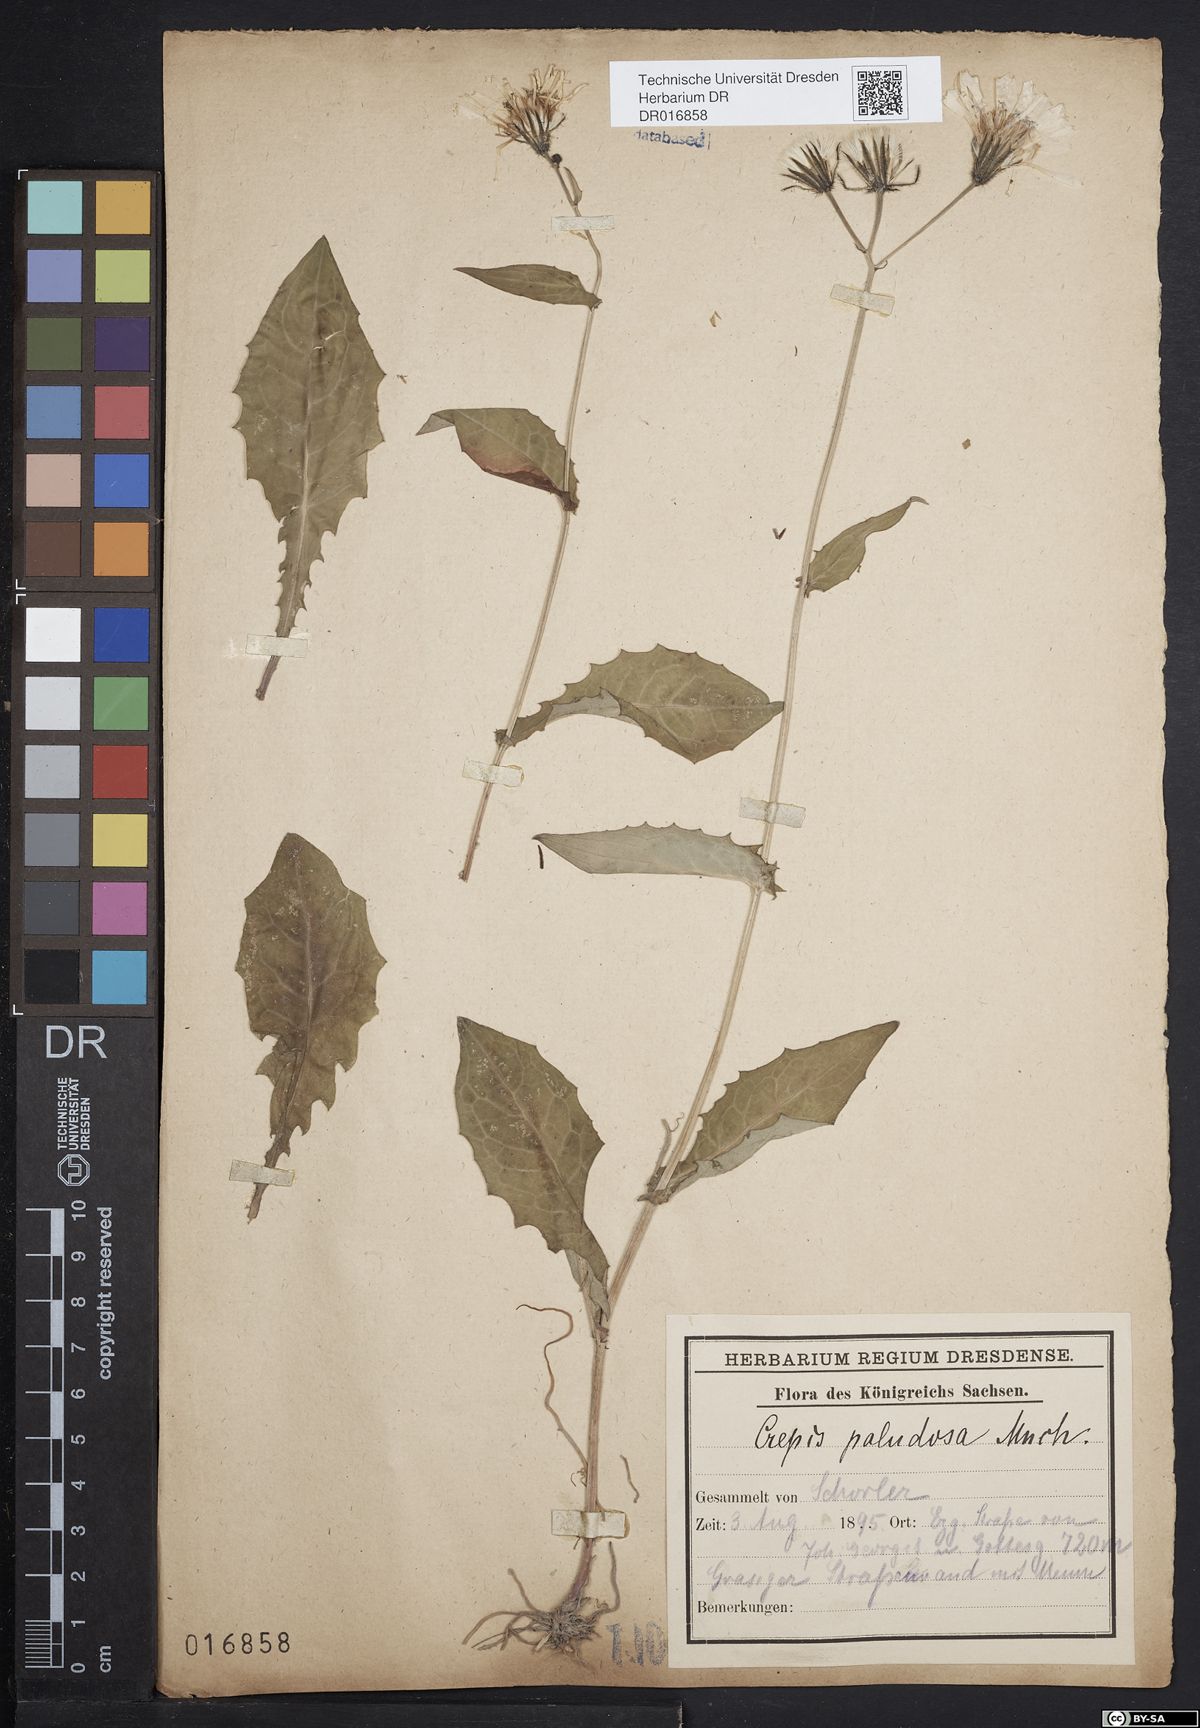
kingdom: Plantae
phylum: Tracheophyta
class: Magnoliopsida
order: Asterales
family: Asteraceae
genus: Crepis
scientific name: Crepis paludosa
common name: Marsh hawk's-beard
